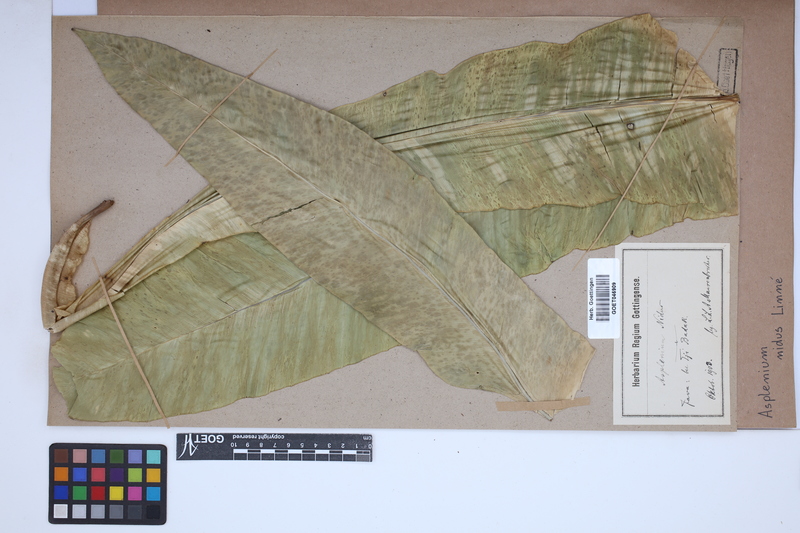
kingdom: Plantae
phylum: Tracheophyta
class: Polypodiopsida
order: Polypodiales
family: Aspleniaceae
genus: Asplenium
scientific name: Asplenium nidus
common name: Bird's-nest fern
